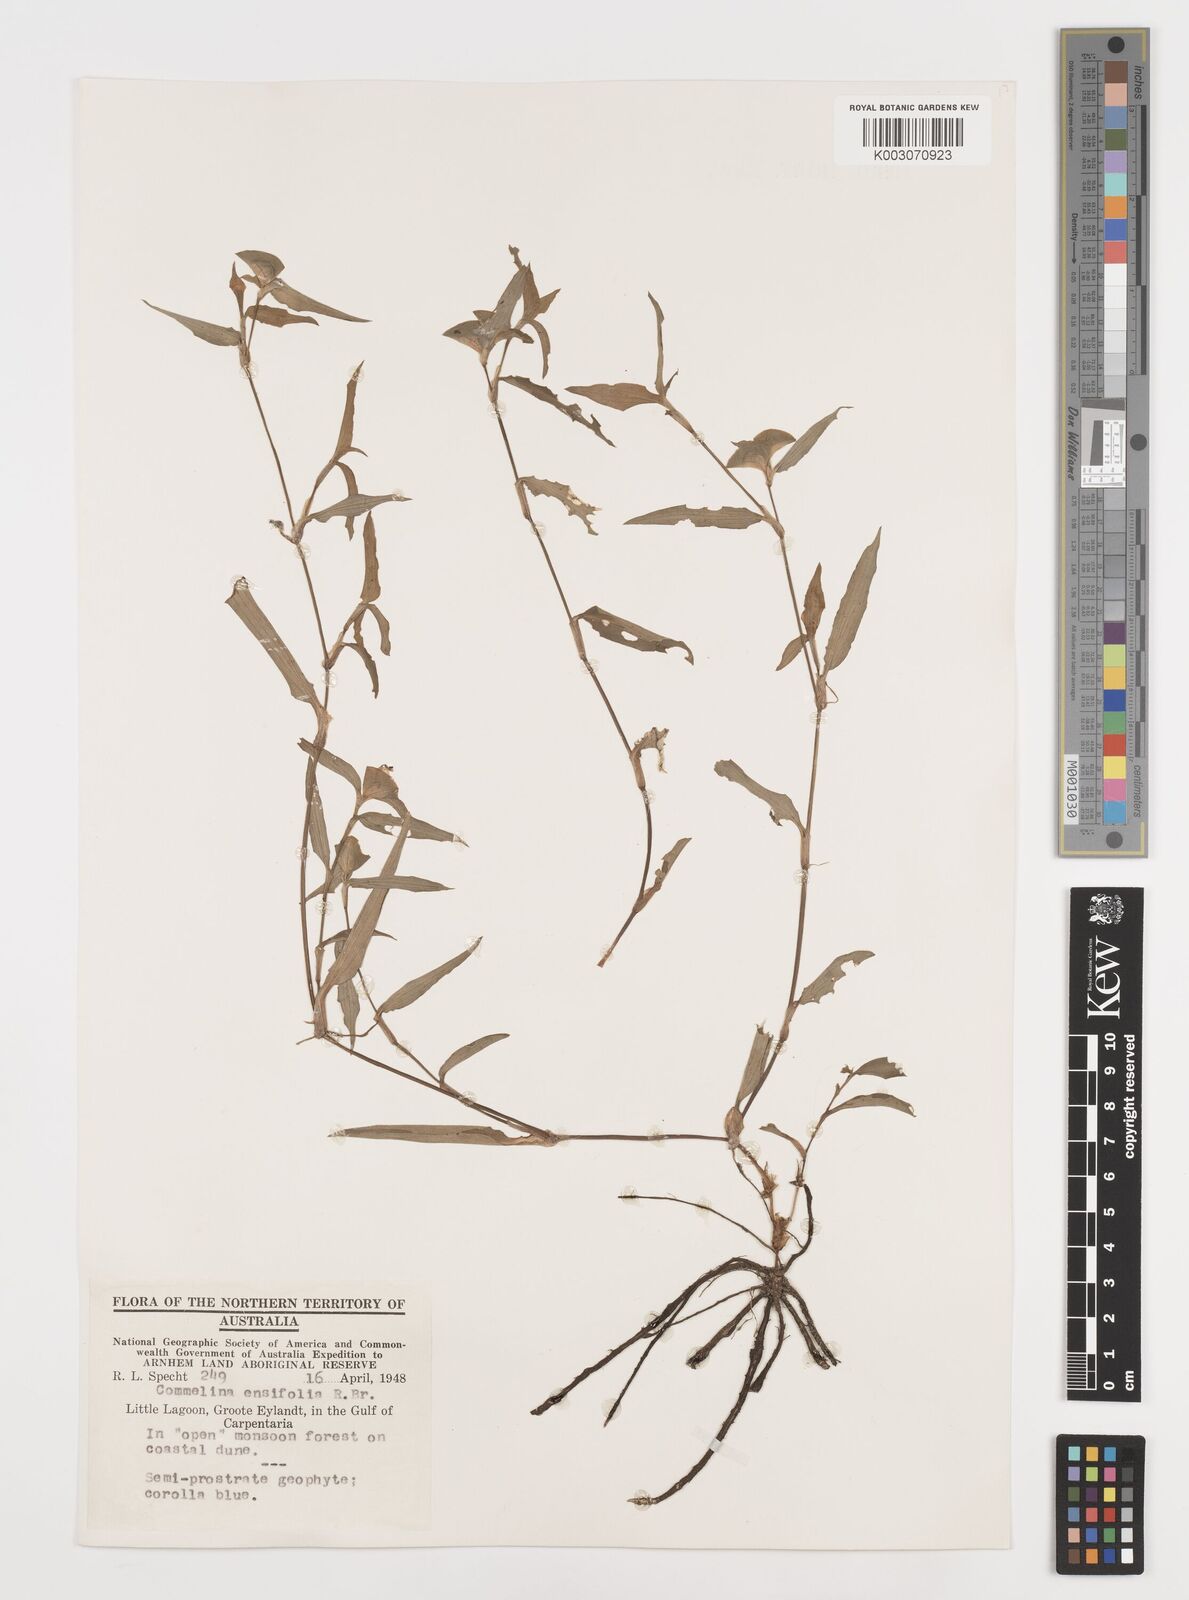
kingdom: Plantae
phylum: Tracheophyta
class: Liliopsida
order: Commelinales
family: Commelinaceae
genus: Commelina
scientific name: Commelina ensifolia
